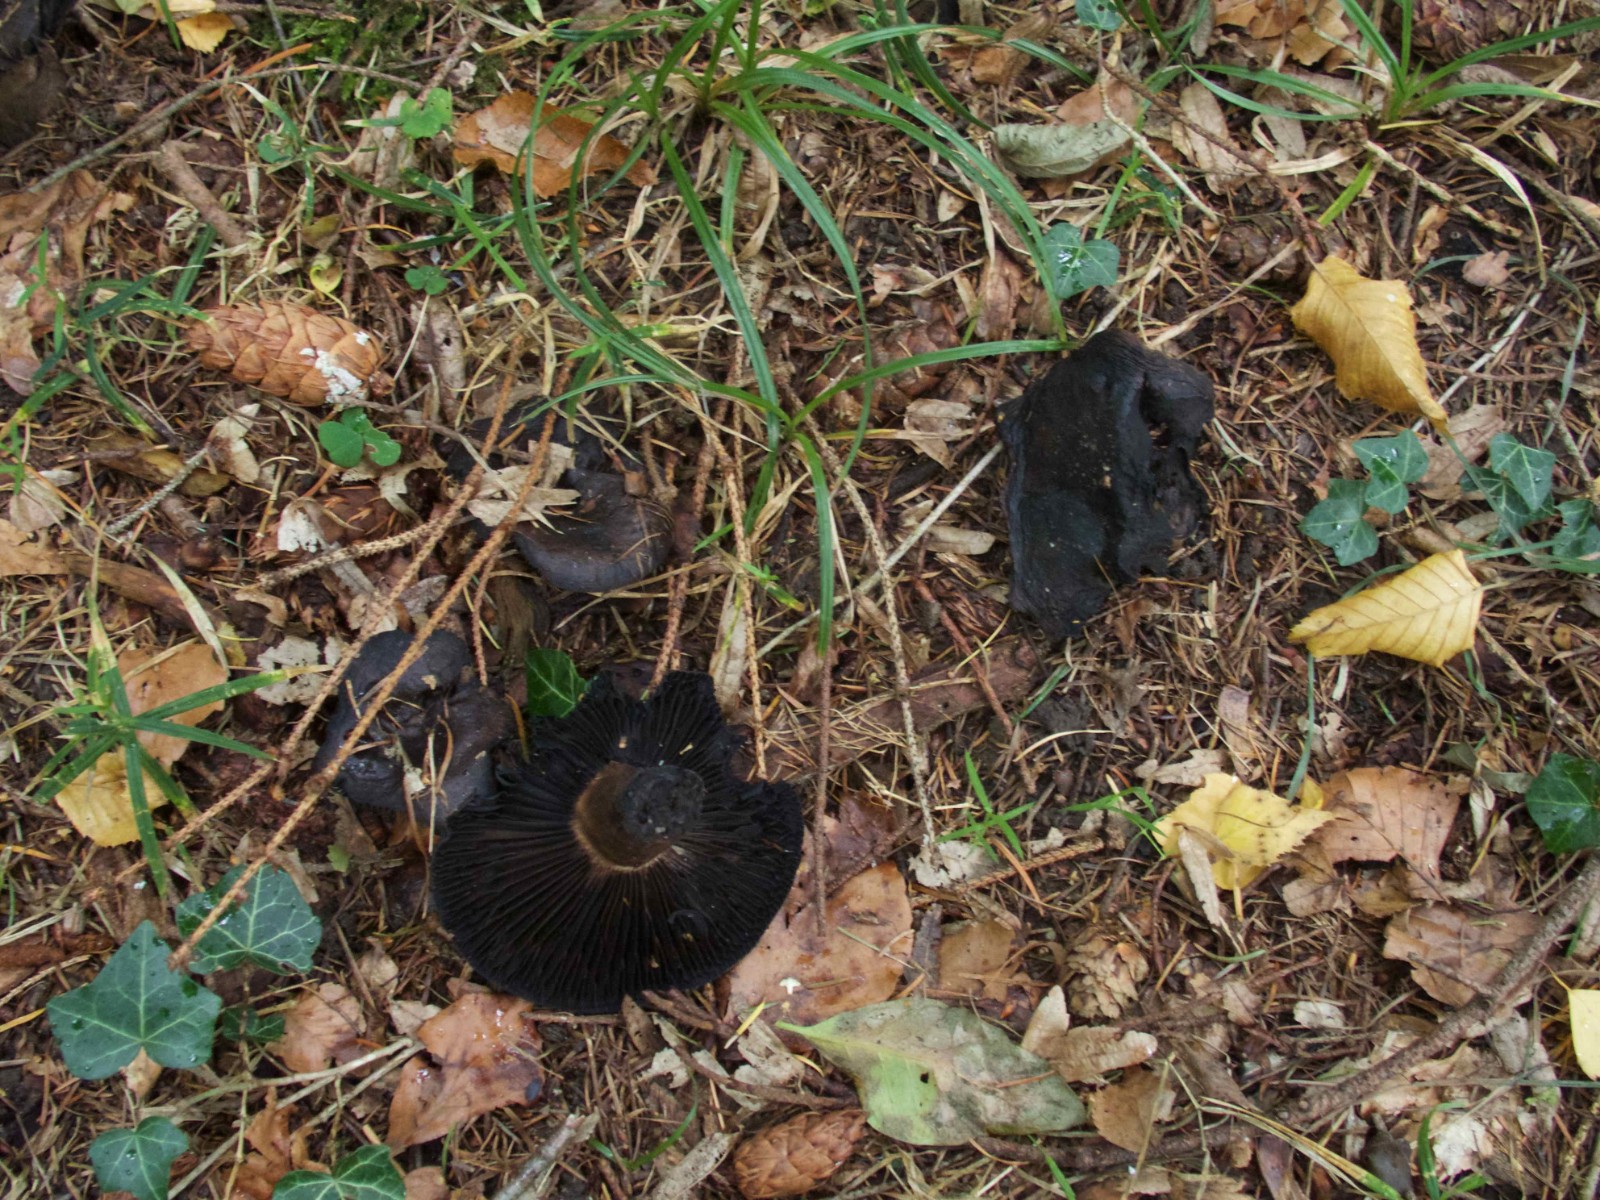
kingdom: Fungi
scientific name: Fungi
